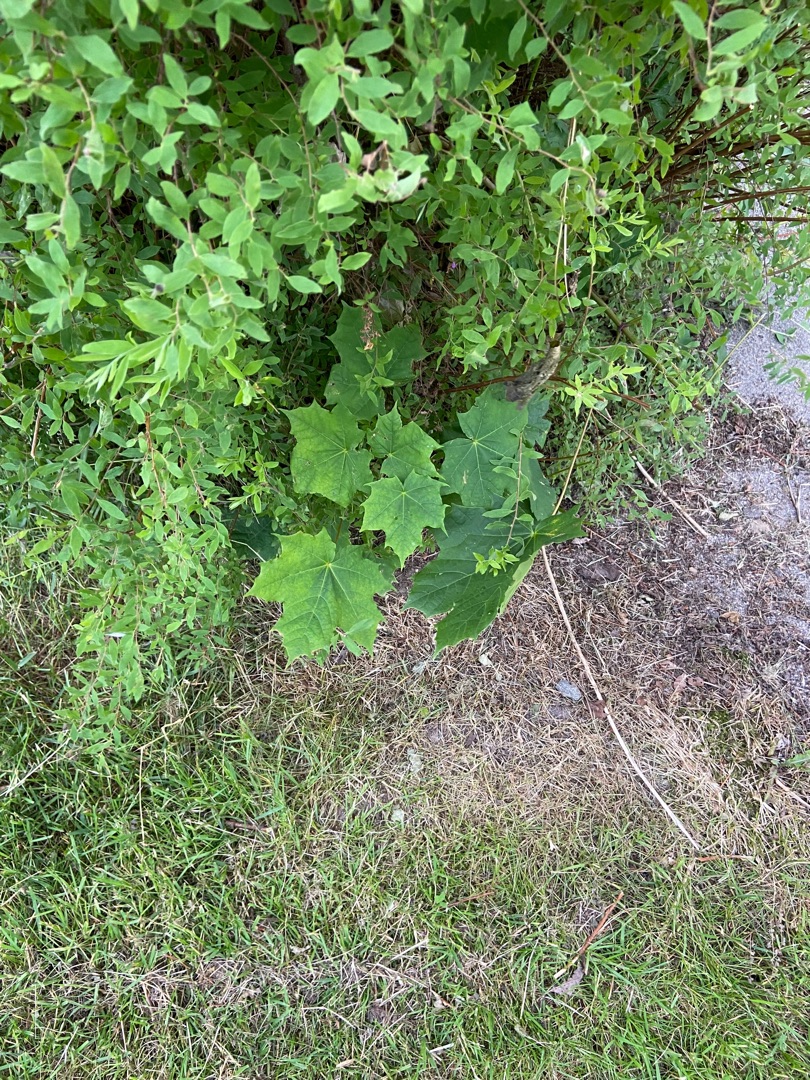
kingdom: Plantae
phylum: Tracheophyta
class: Magnoliopsida
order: Sapindales
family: Sapindaceae
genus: Acer
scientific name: Acer platanoides
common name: Spids-løn
